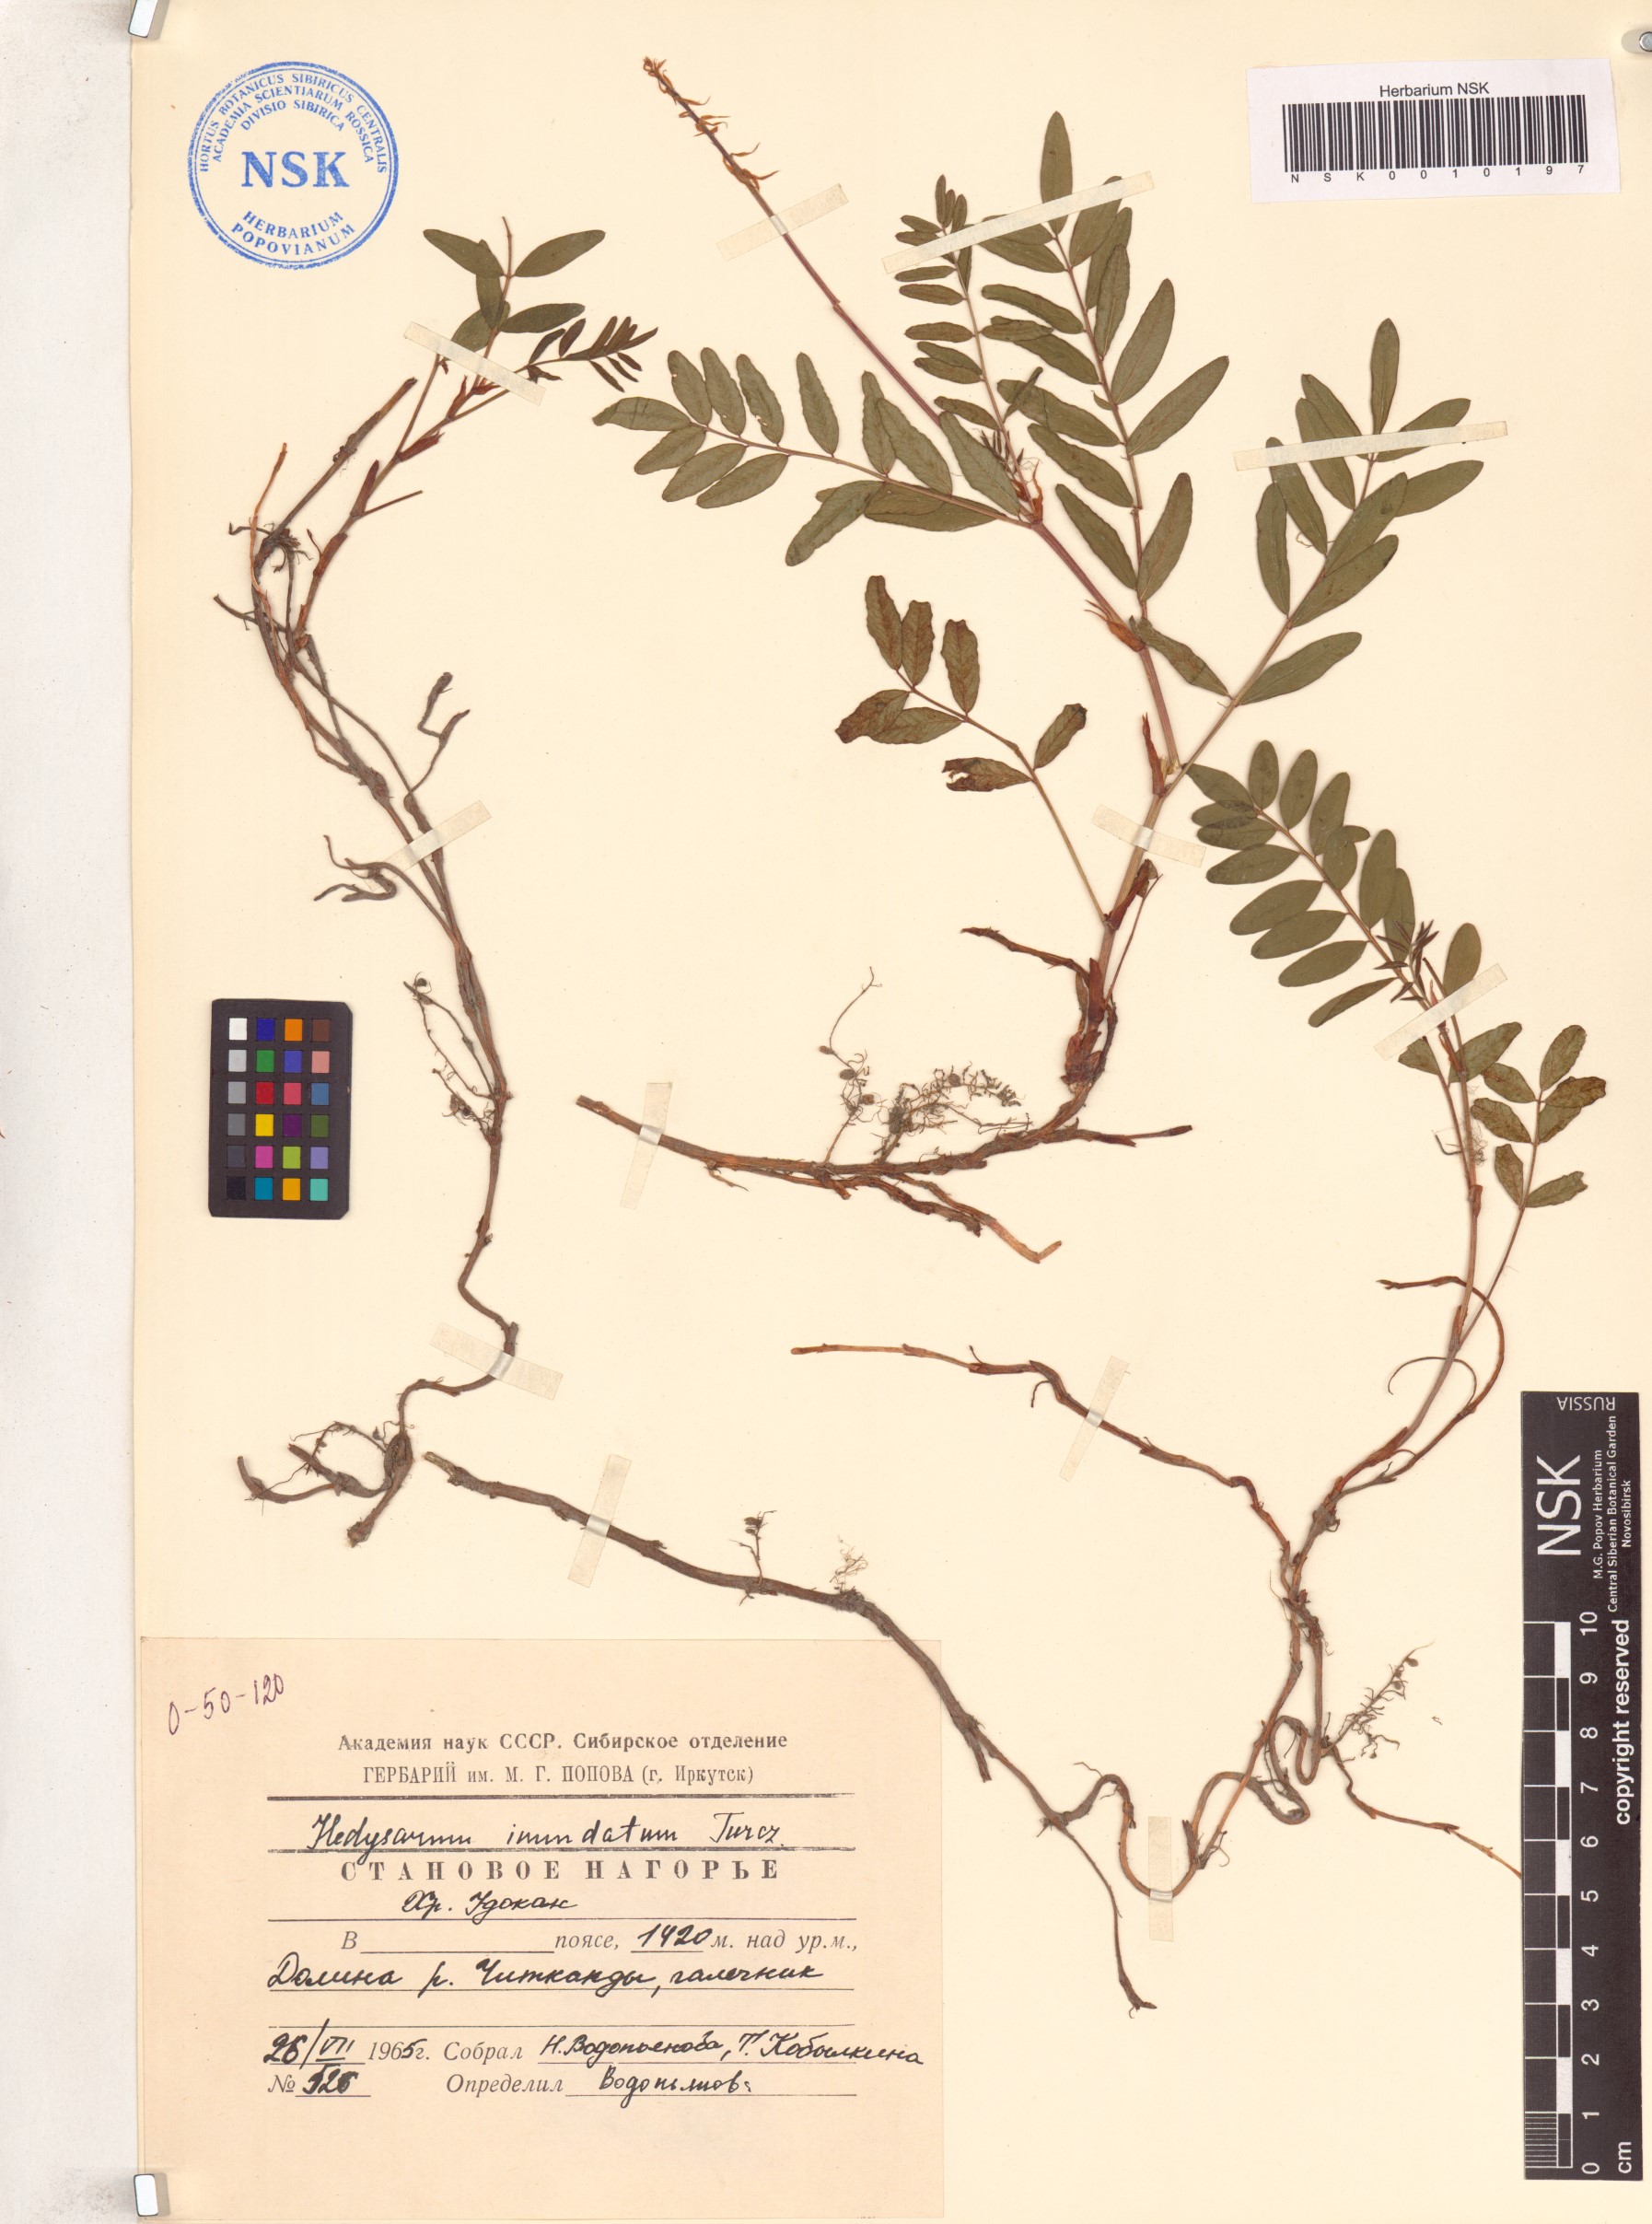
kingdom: Plantae
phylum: Tracheophyta
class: Magnoliopsida
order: Fabales
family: Fabaceae
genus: Hedysarum
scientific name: Hedysarum inundatum
